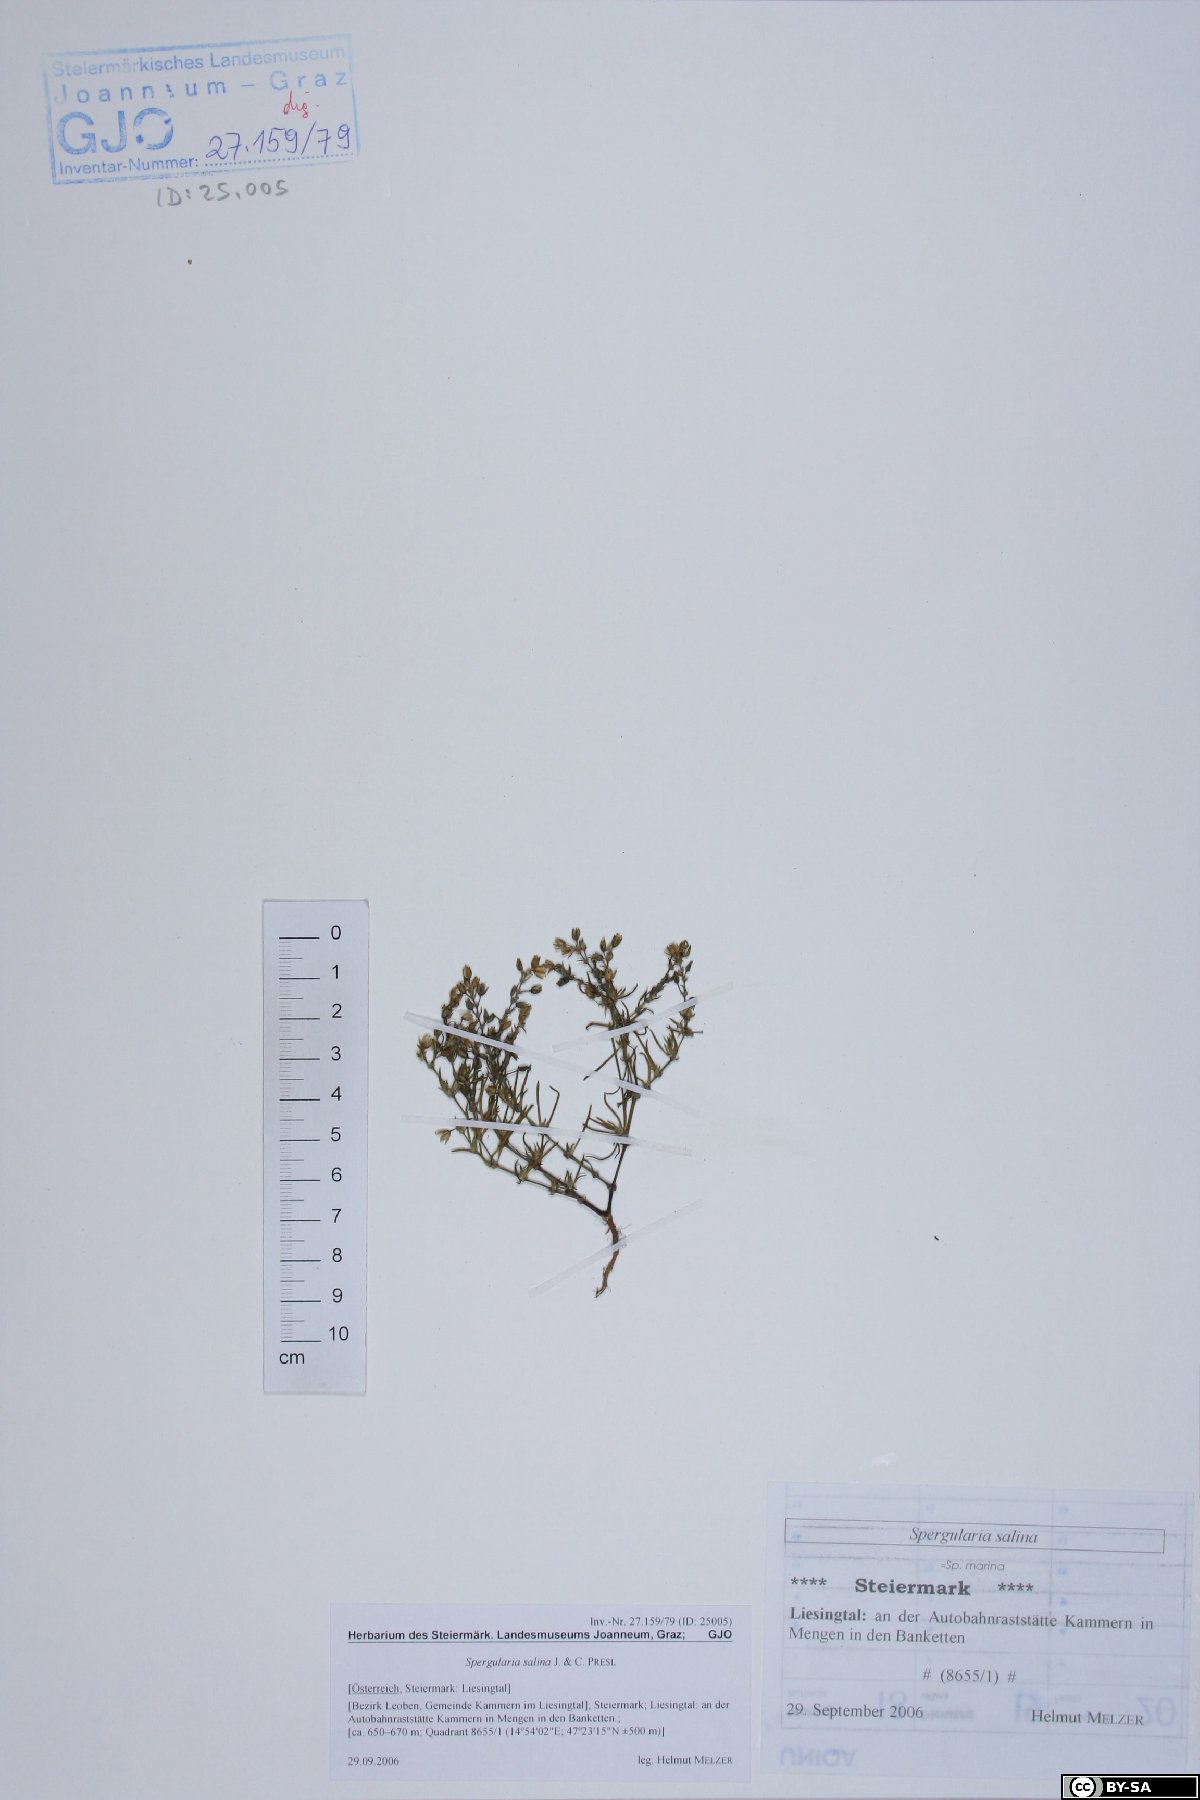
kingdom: Plantae
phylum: Tracheophyta
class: Magnoliopsida
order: Caryophyllales
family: Caryophyllaceae
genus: Spergularia
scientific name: Spergularia marina
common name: Lesser sea-spurrey
